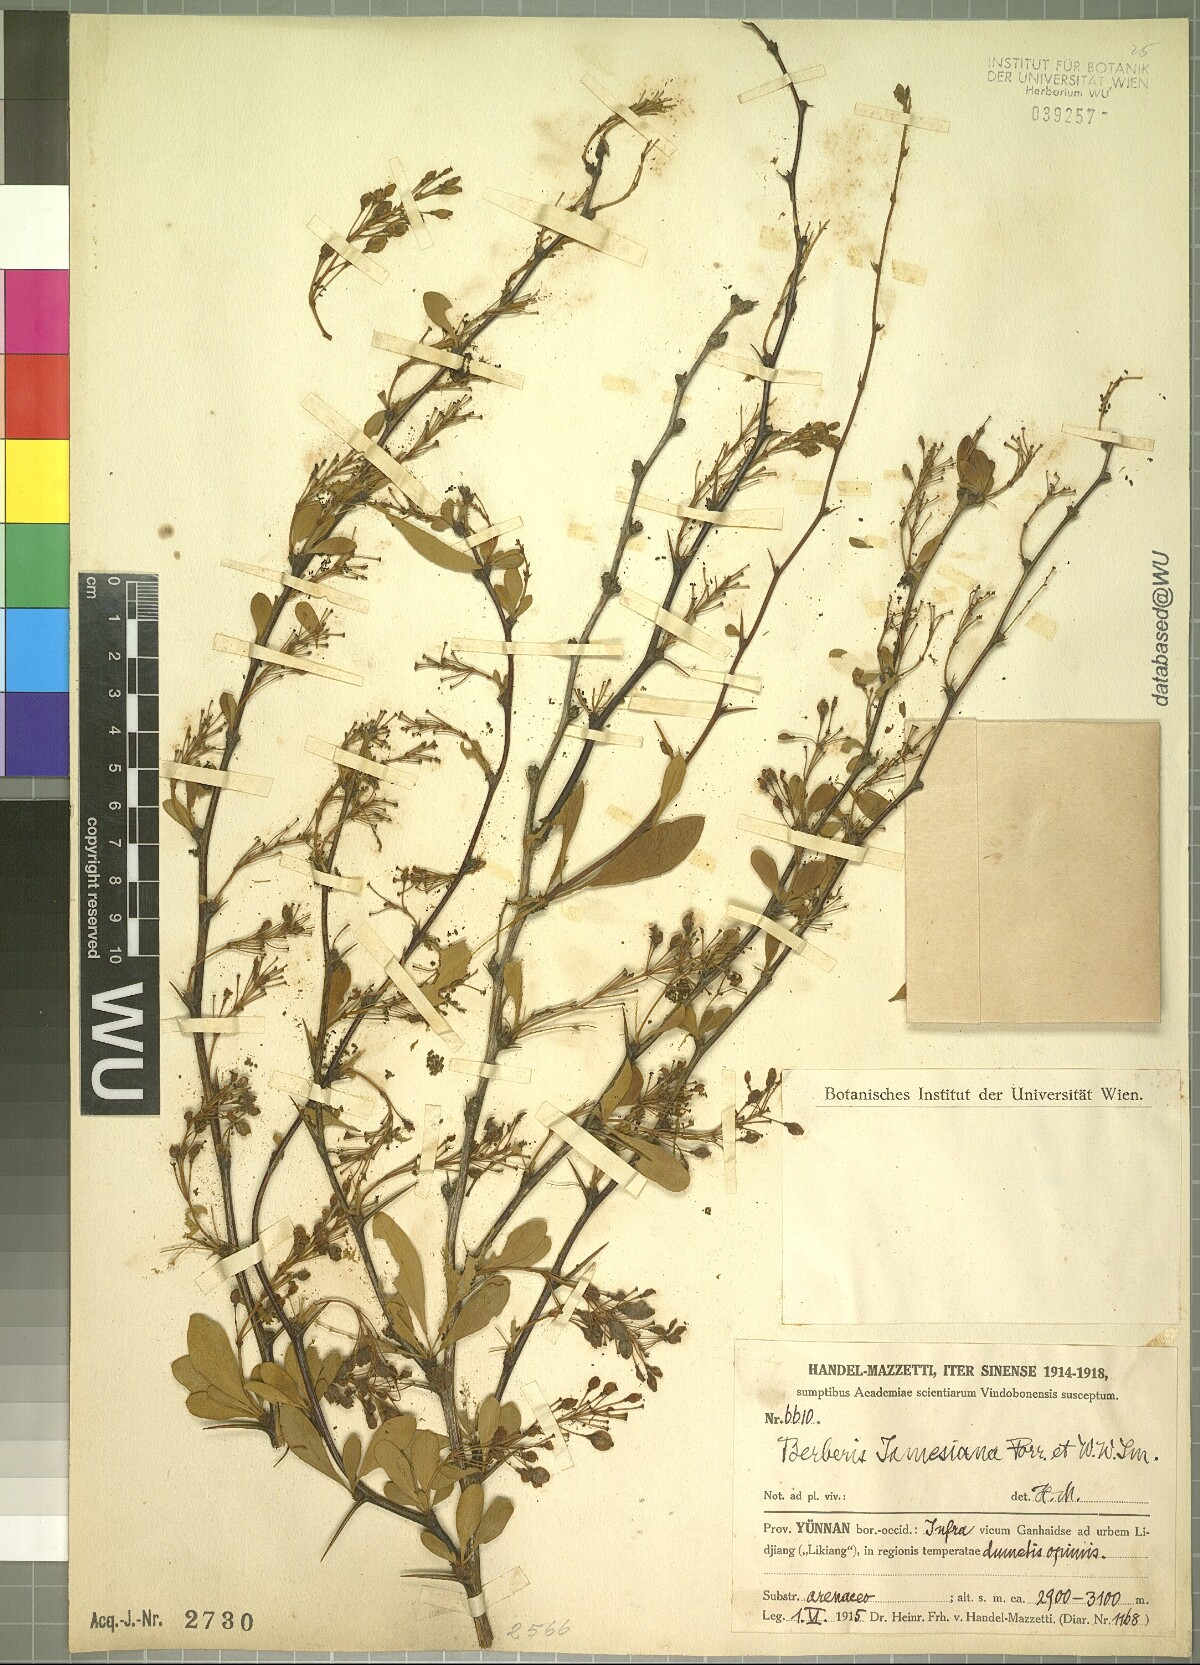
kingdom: Plantae
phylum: Tracheophyta
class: Magnoliopsida
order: Ranunculales
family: Berberidaceae
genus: Berberis
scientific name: Berberis jamesiana
